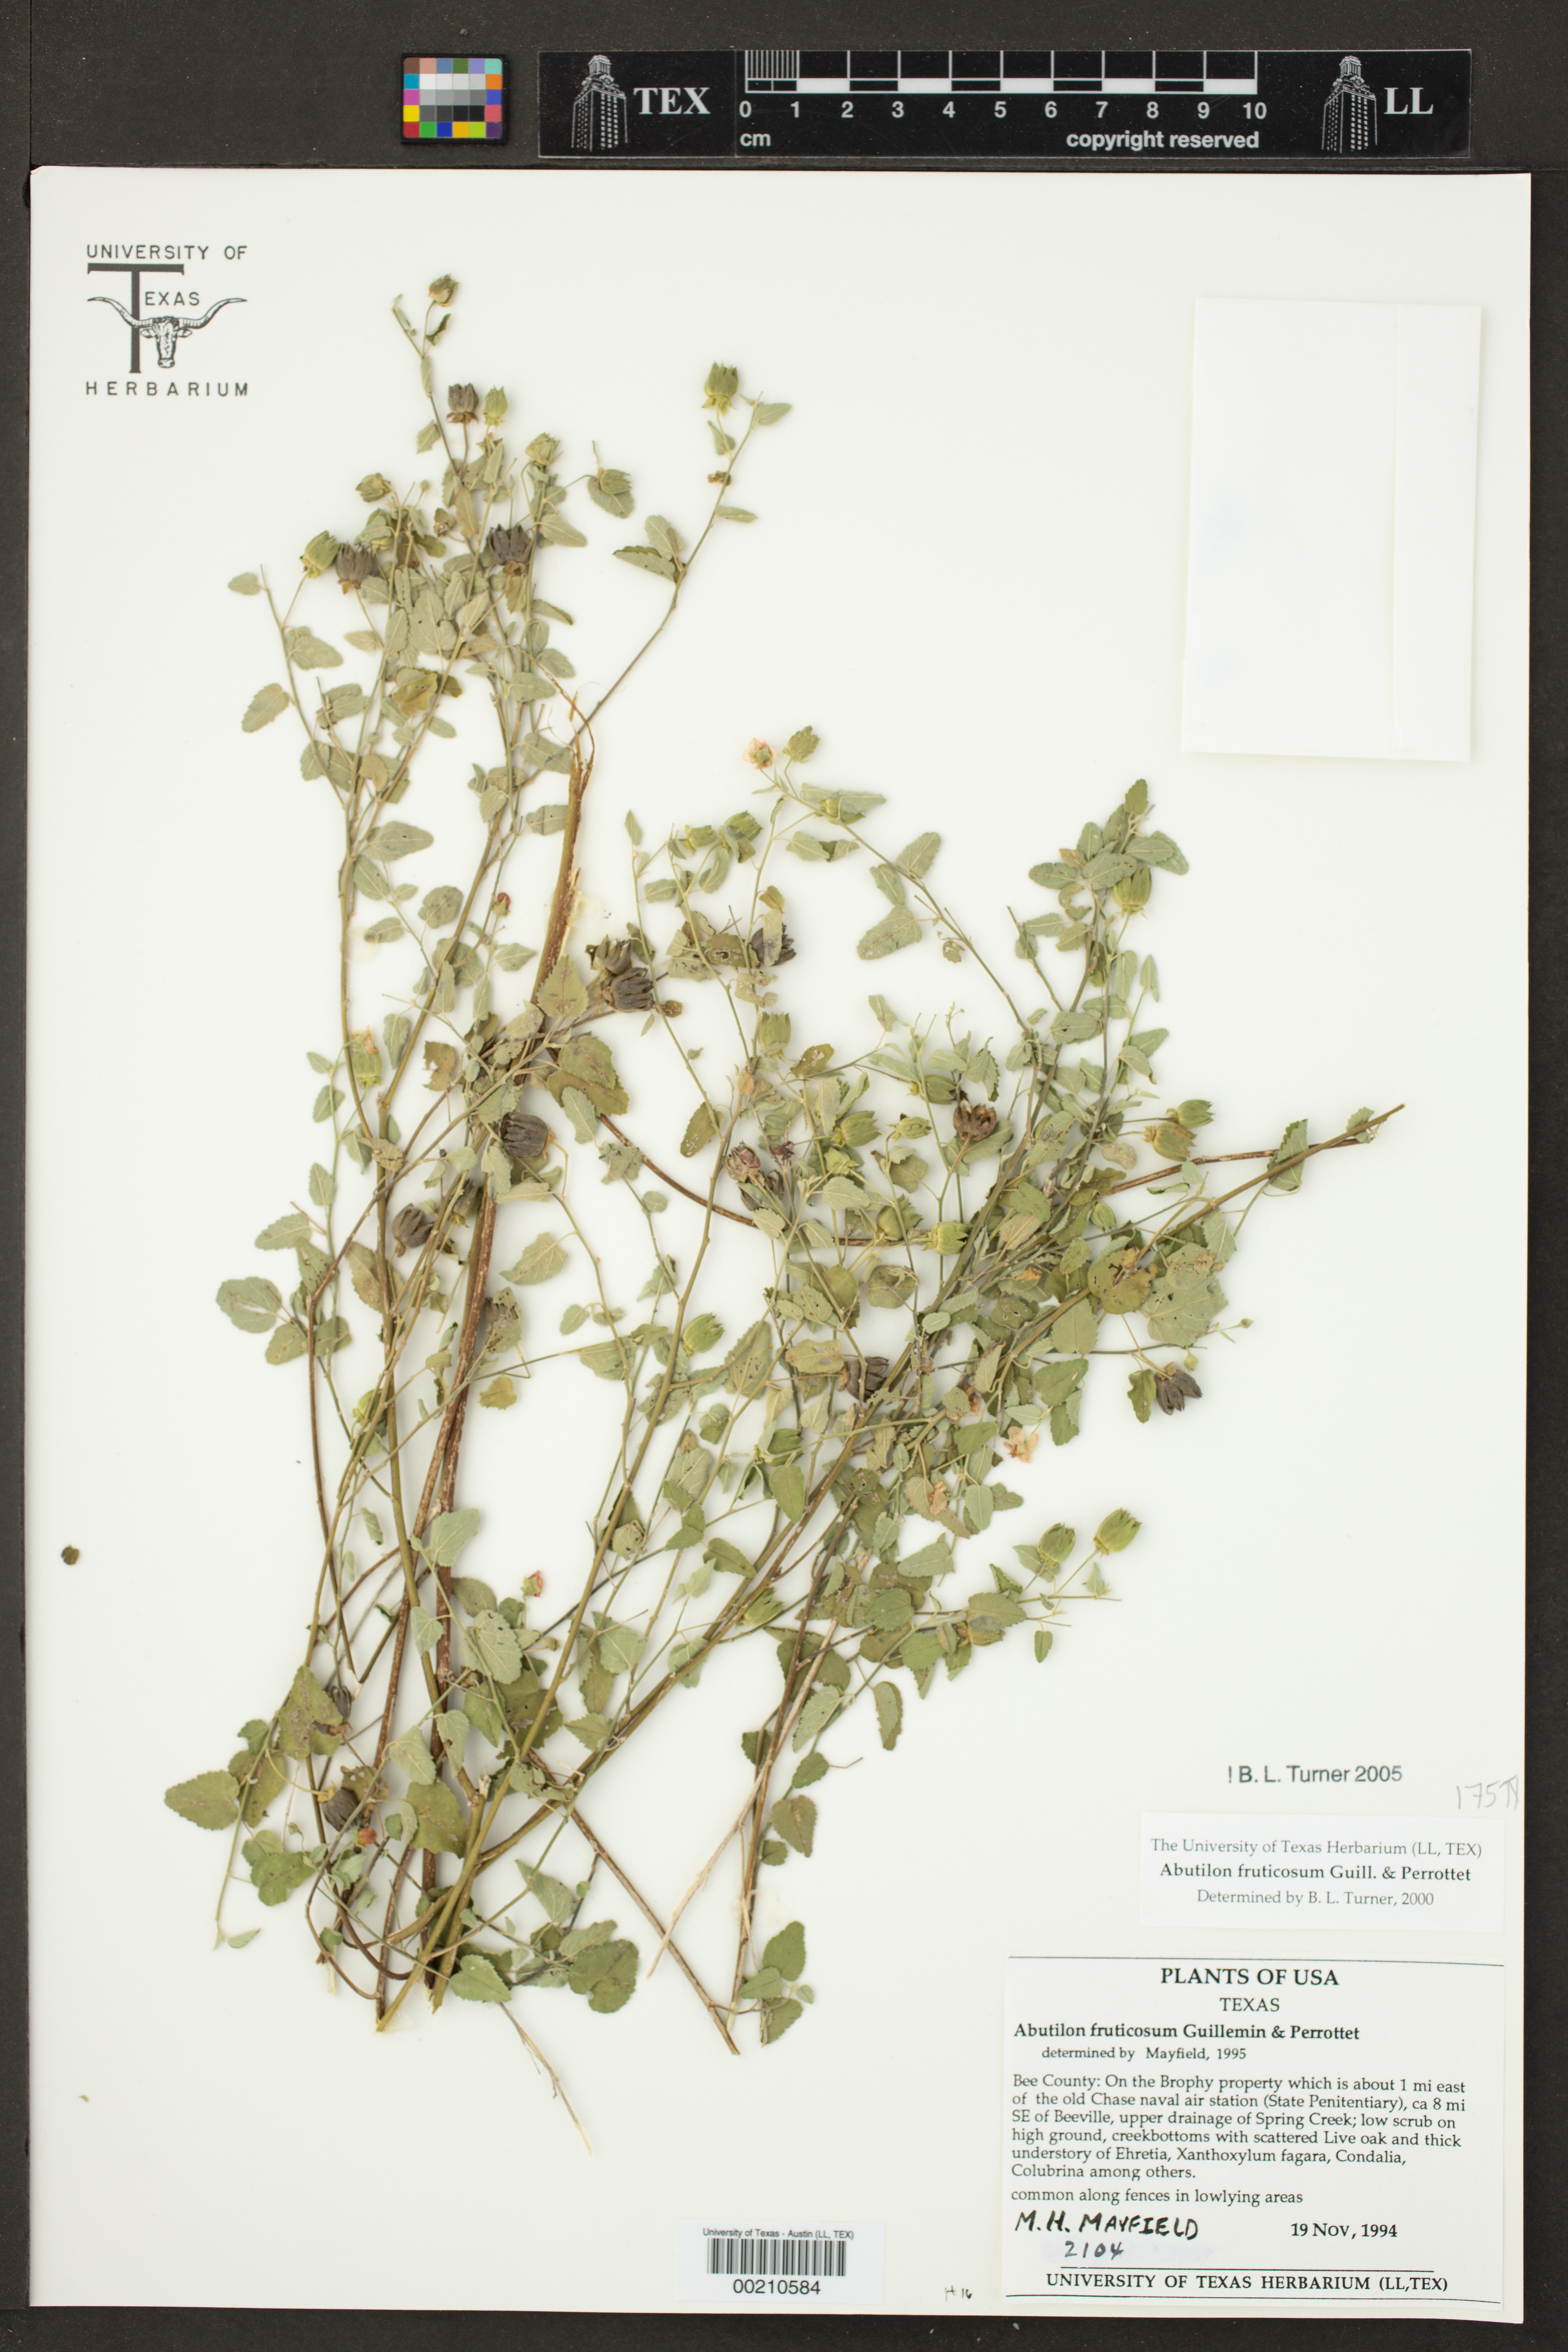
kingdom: Plantae
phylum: Tracheophyta
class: Magnoliopsida
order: Malvales
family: Malvaceae
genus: Abutilon
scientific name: Abutilon fruticosum
